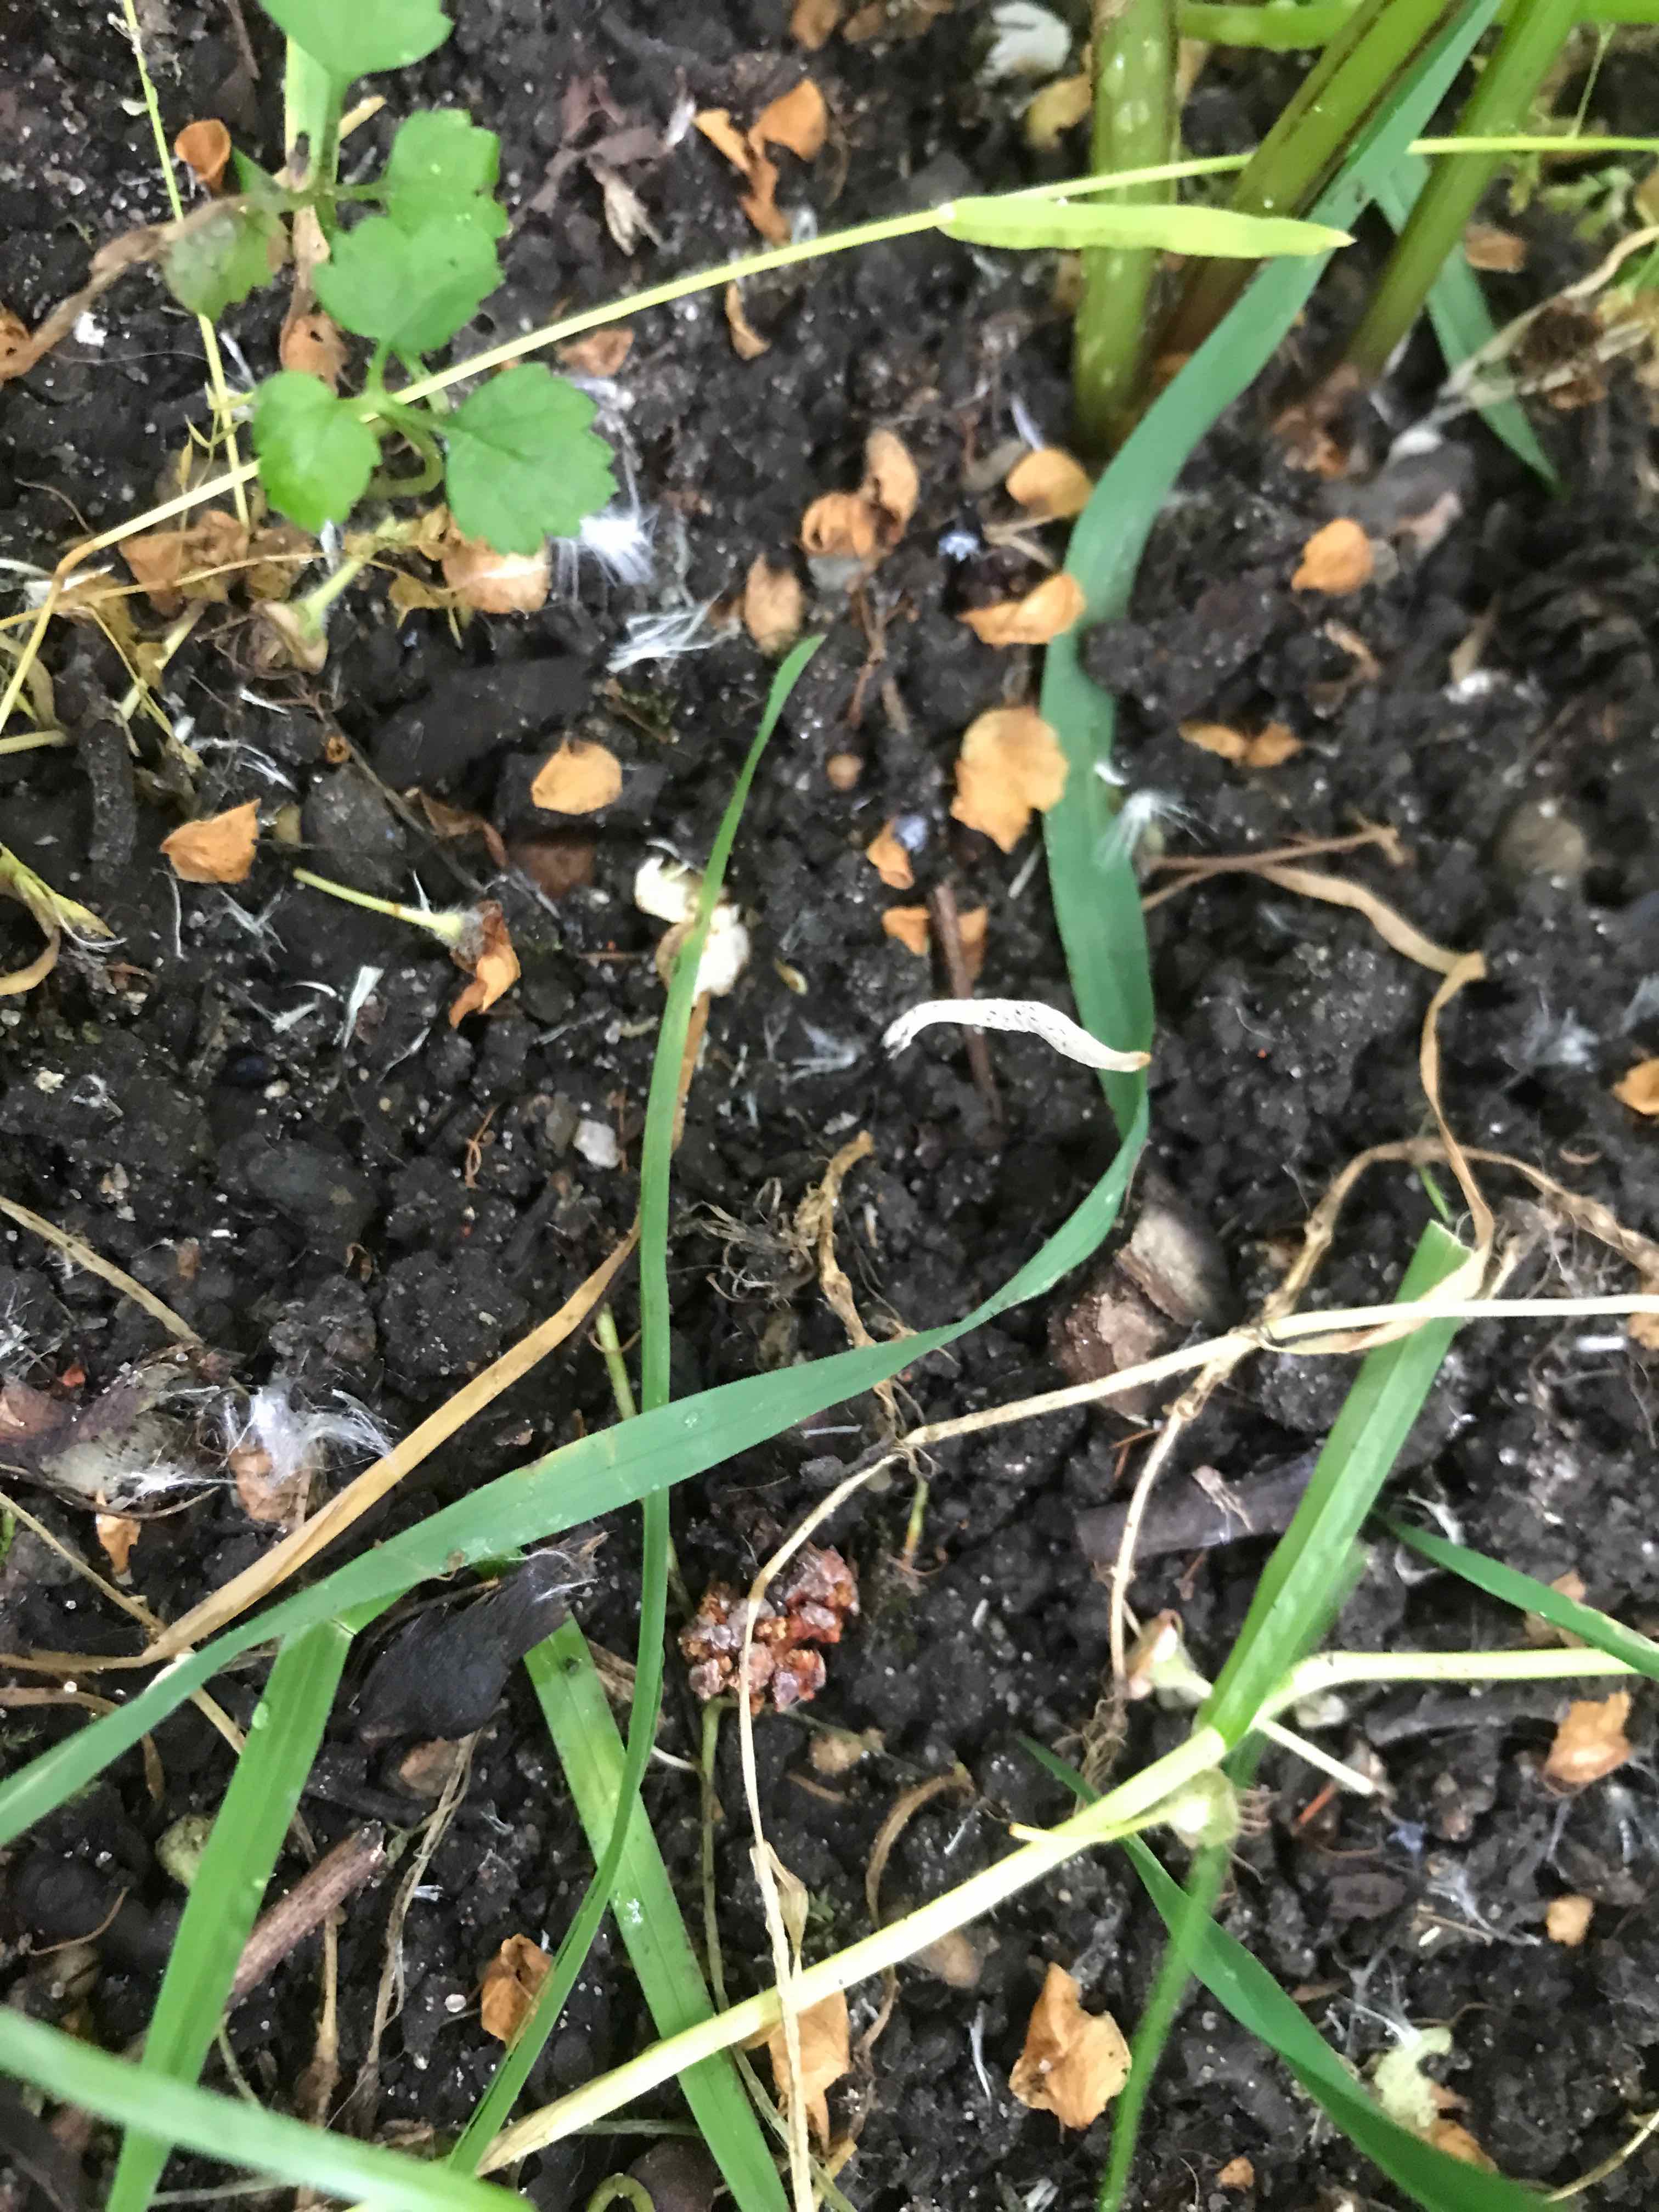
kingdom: Fungi
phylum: Ascomycota
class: Sordariomycetes
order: Xylariales
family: Xylariaceae
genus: Xylaria
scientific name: Xylaria oxyacanthae
